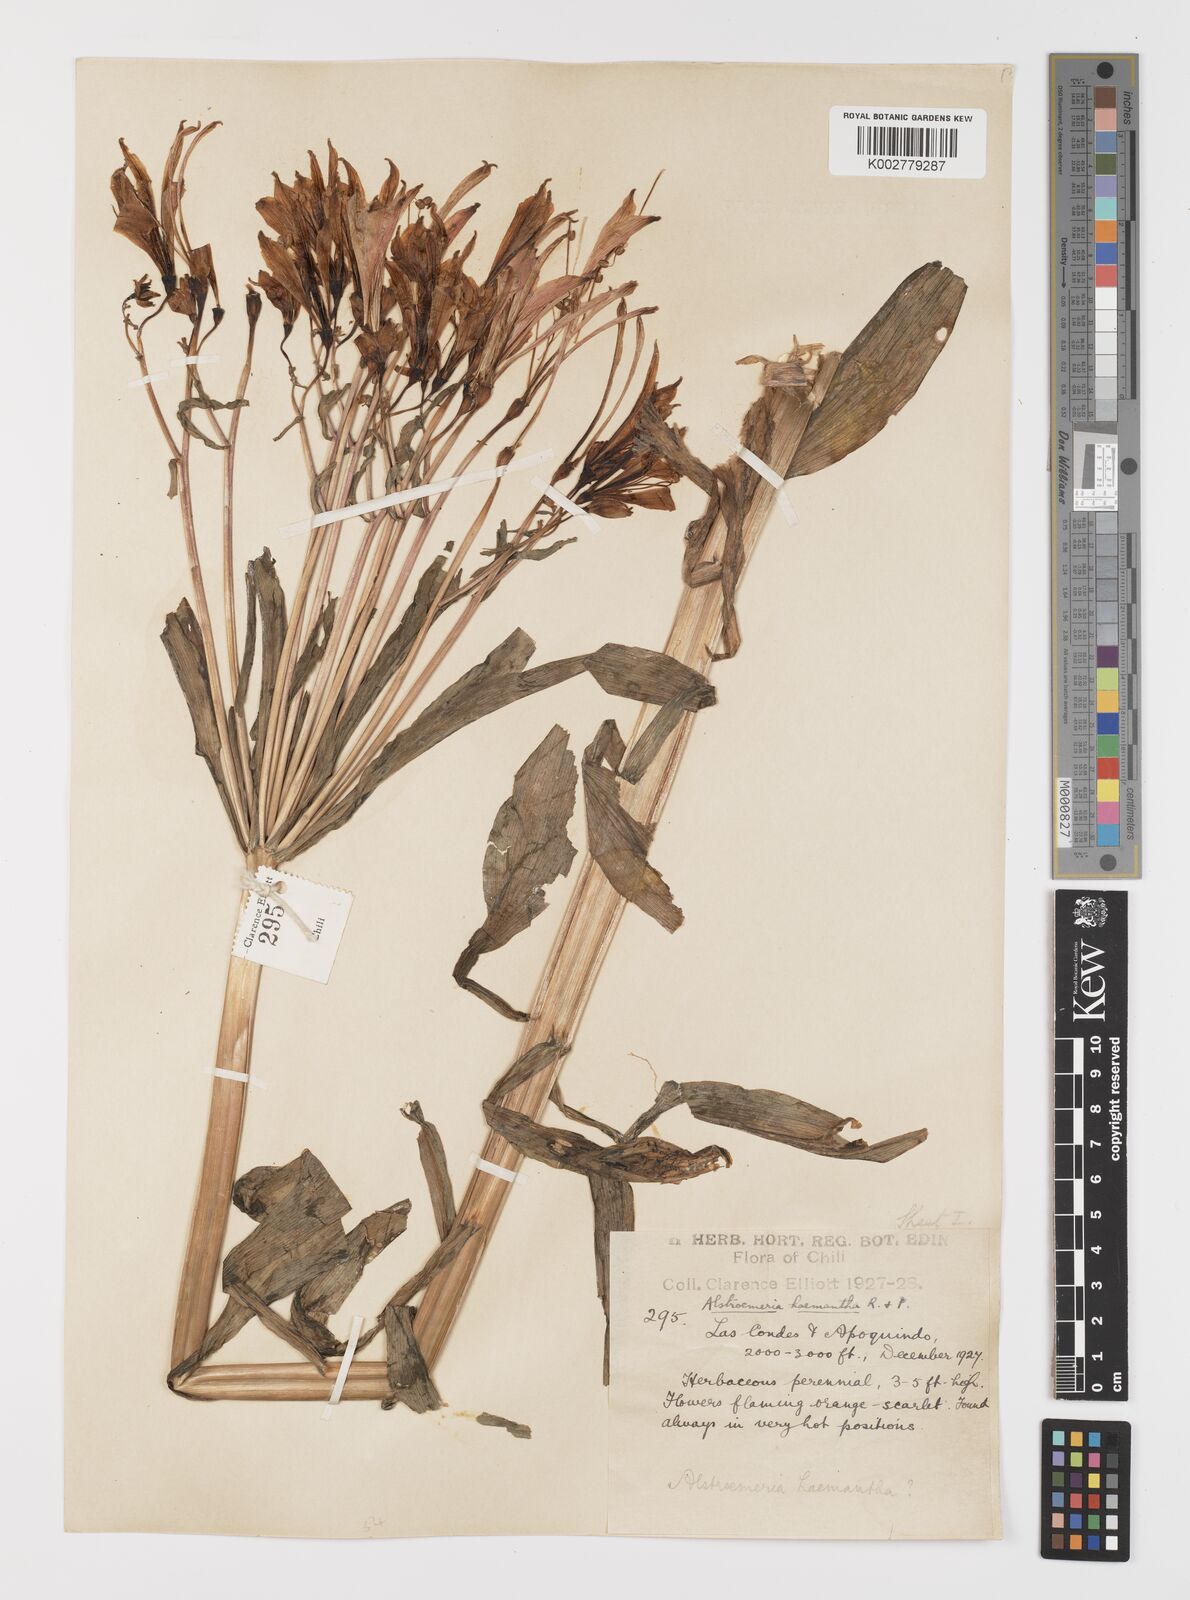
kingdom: Plantae
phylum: Tracheophyta
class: Liliopsida
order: Liliales
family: Alstroemeriaceae
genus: Alstroemeria
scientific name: Alstroemeria ligtu
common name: St. martin's-flower
